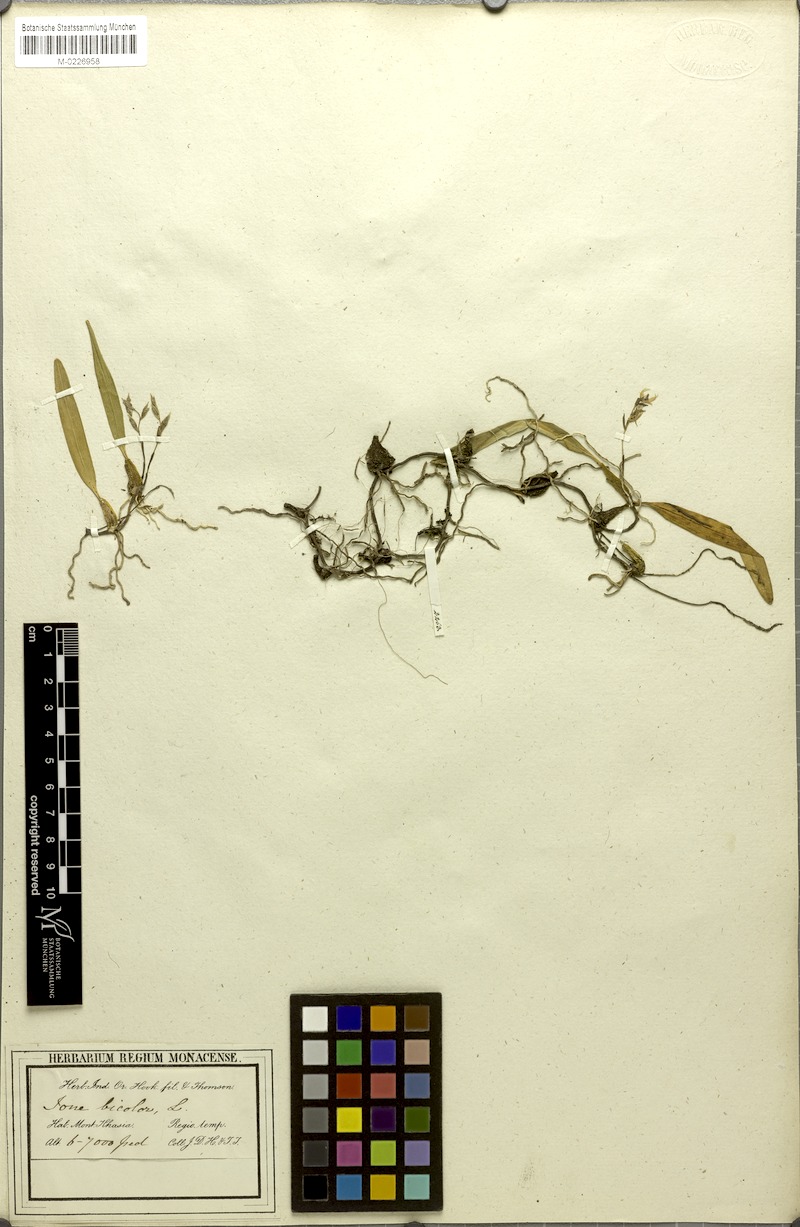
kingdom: Plantae
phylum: Tracheophyta
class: Liliopsida
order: Asparagales
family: Orchidaceae
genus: Bulbophyllum
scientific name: Bulbophyllum roseopictum
